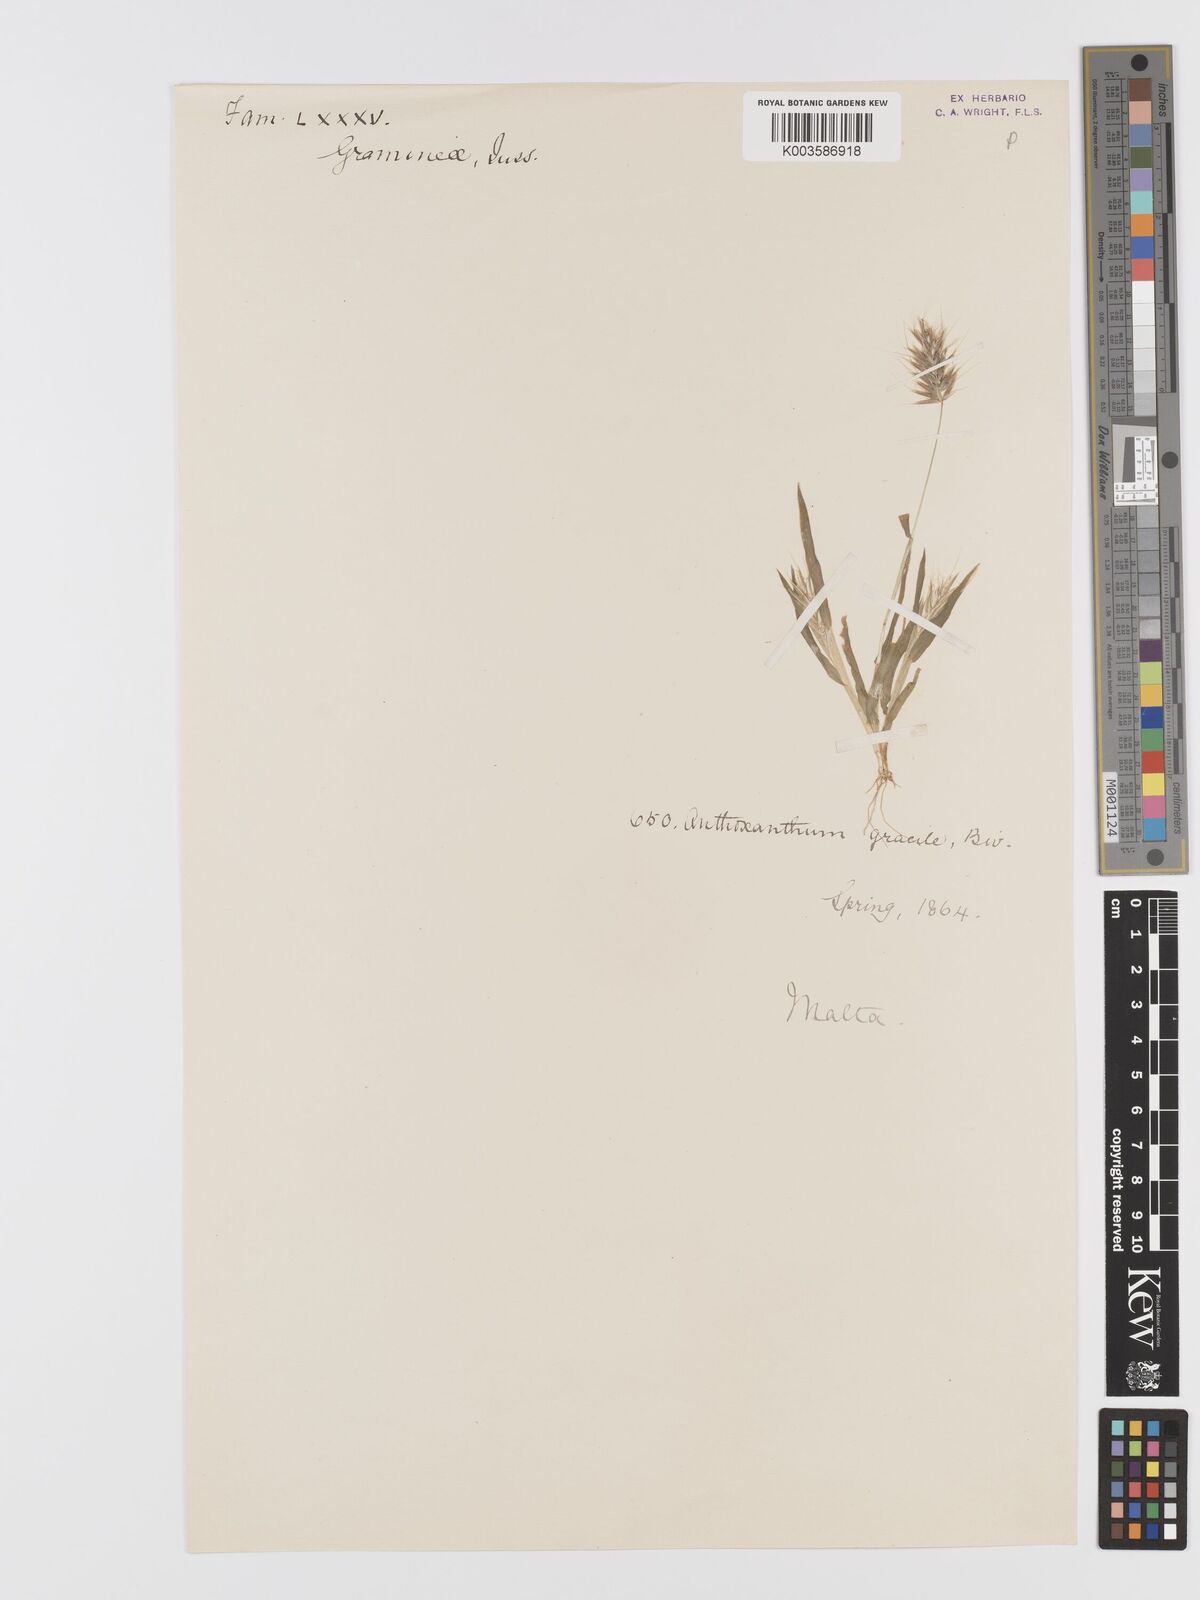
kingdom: Plantae
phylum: Tracheophyta
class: Liliopsida
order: Poales
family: Poaceae
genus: Anthoxanthum
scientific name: Anthoxanthum gracile
